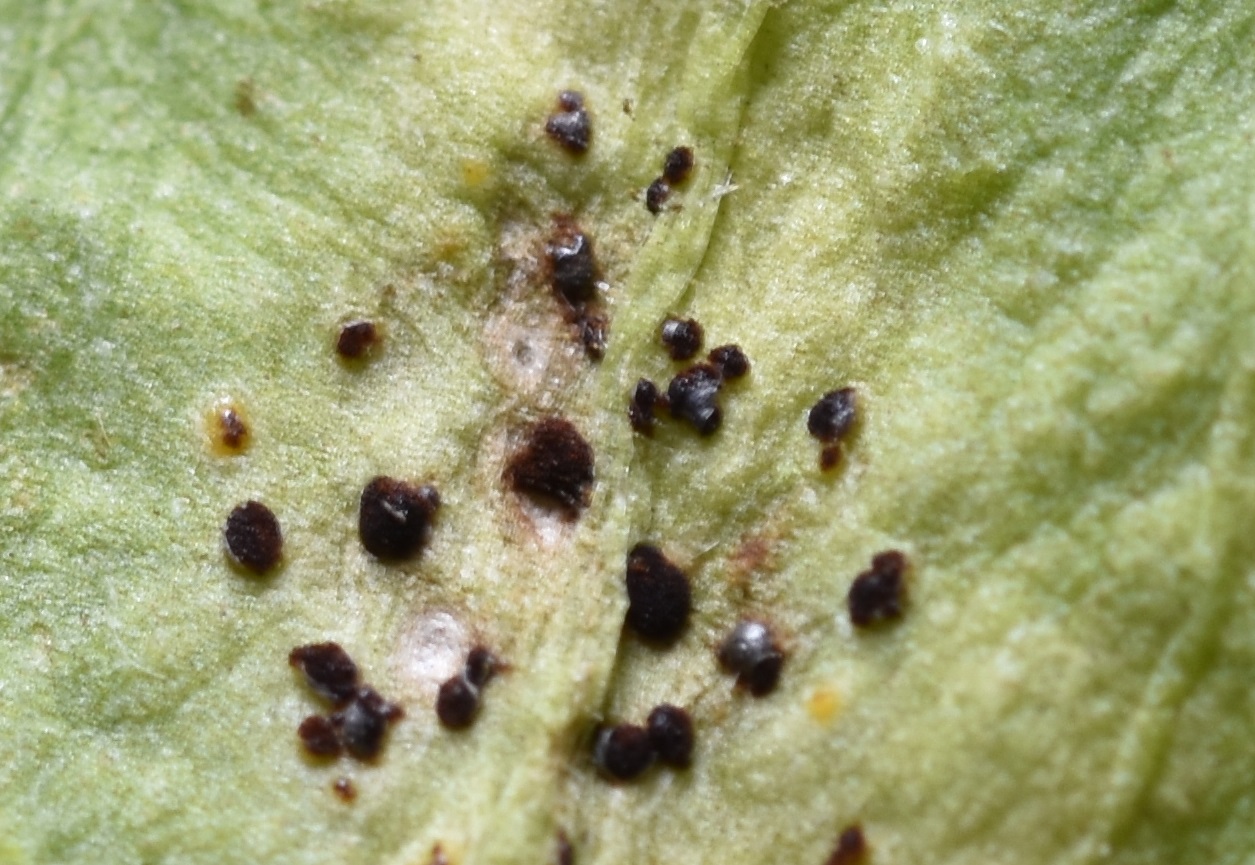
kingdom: Fungi
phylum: Basidiomycota
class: Pucciniomycetes
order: Pucciniales
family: Pucciniaceae
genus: Puccinia
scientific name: Puccinia antirrhini
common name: Antirrhinum rust
